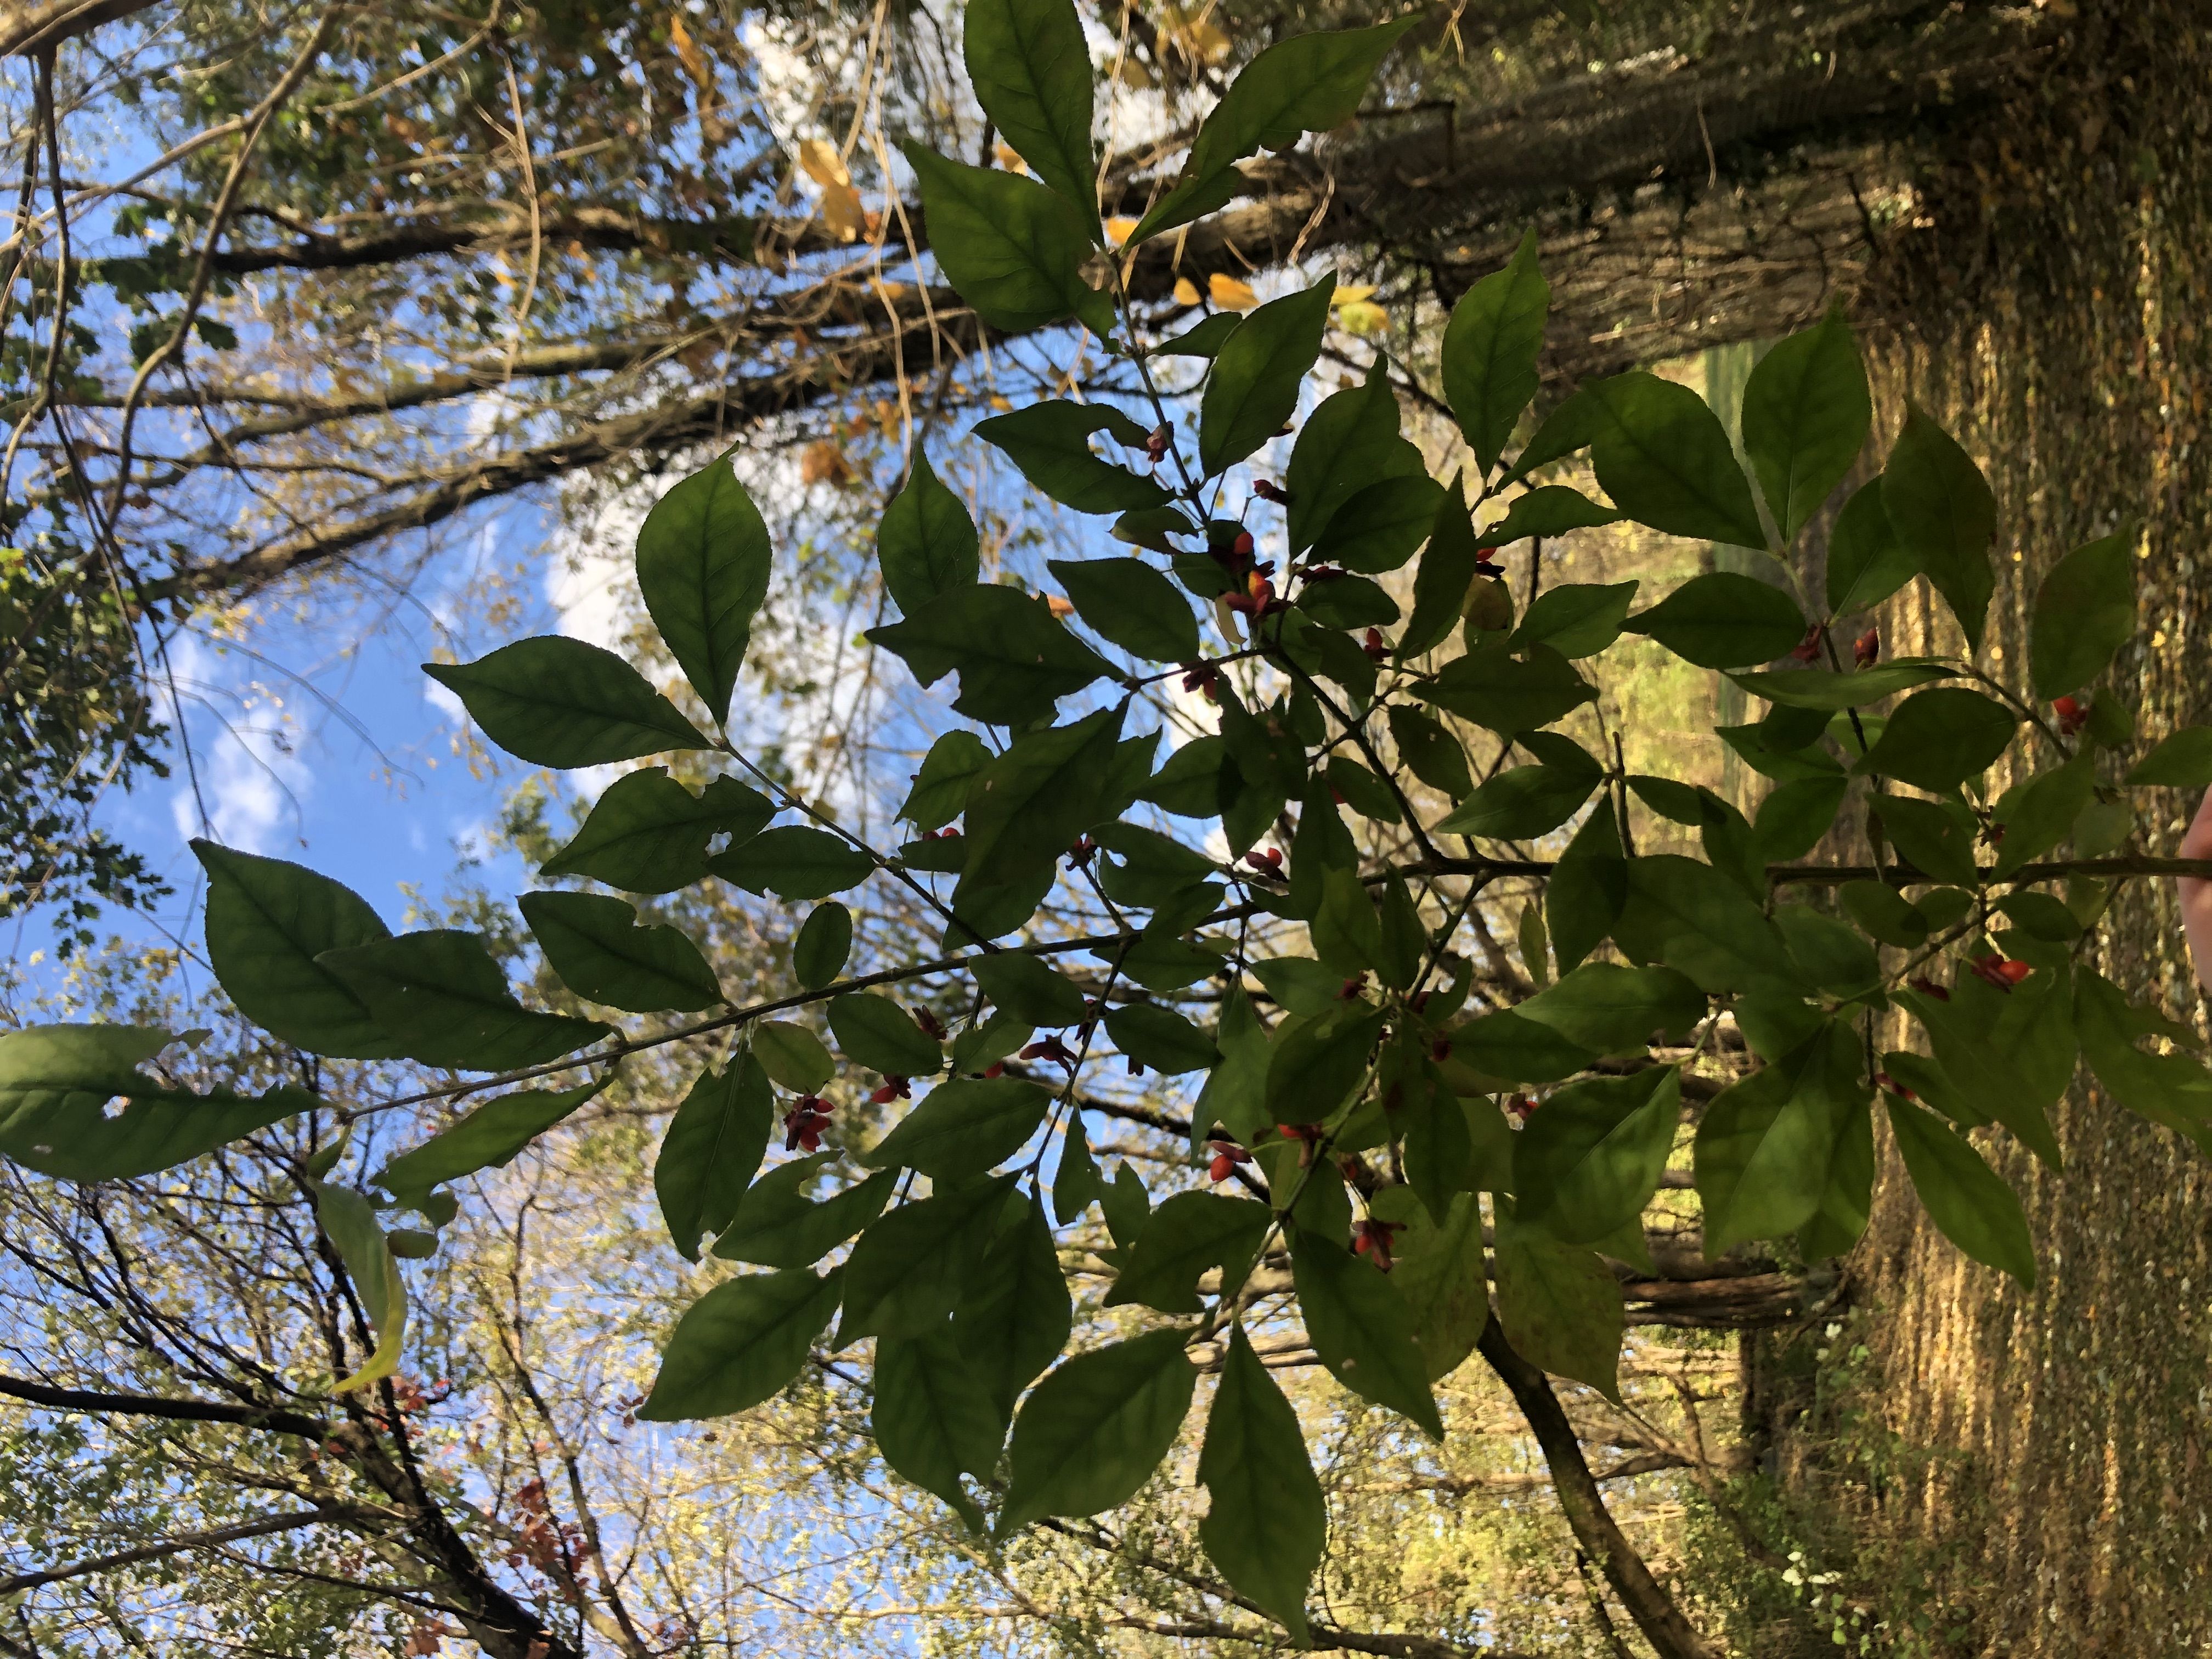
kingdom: Plantae
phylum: Tracheophyta
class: Magnoliopsida
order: Celastrales
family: Celastraceae
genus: Euonymus
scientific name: Euonymus
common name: winged euonymus
